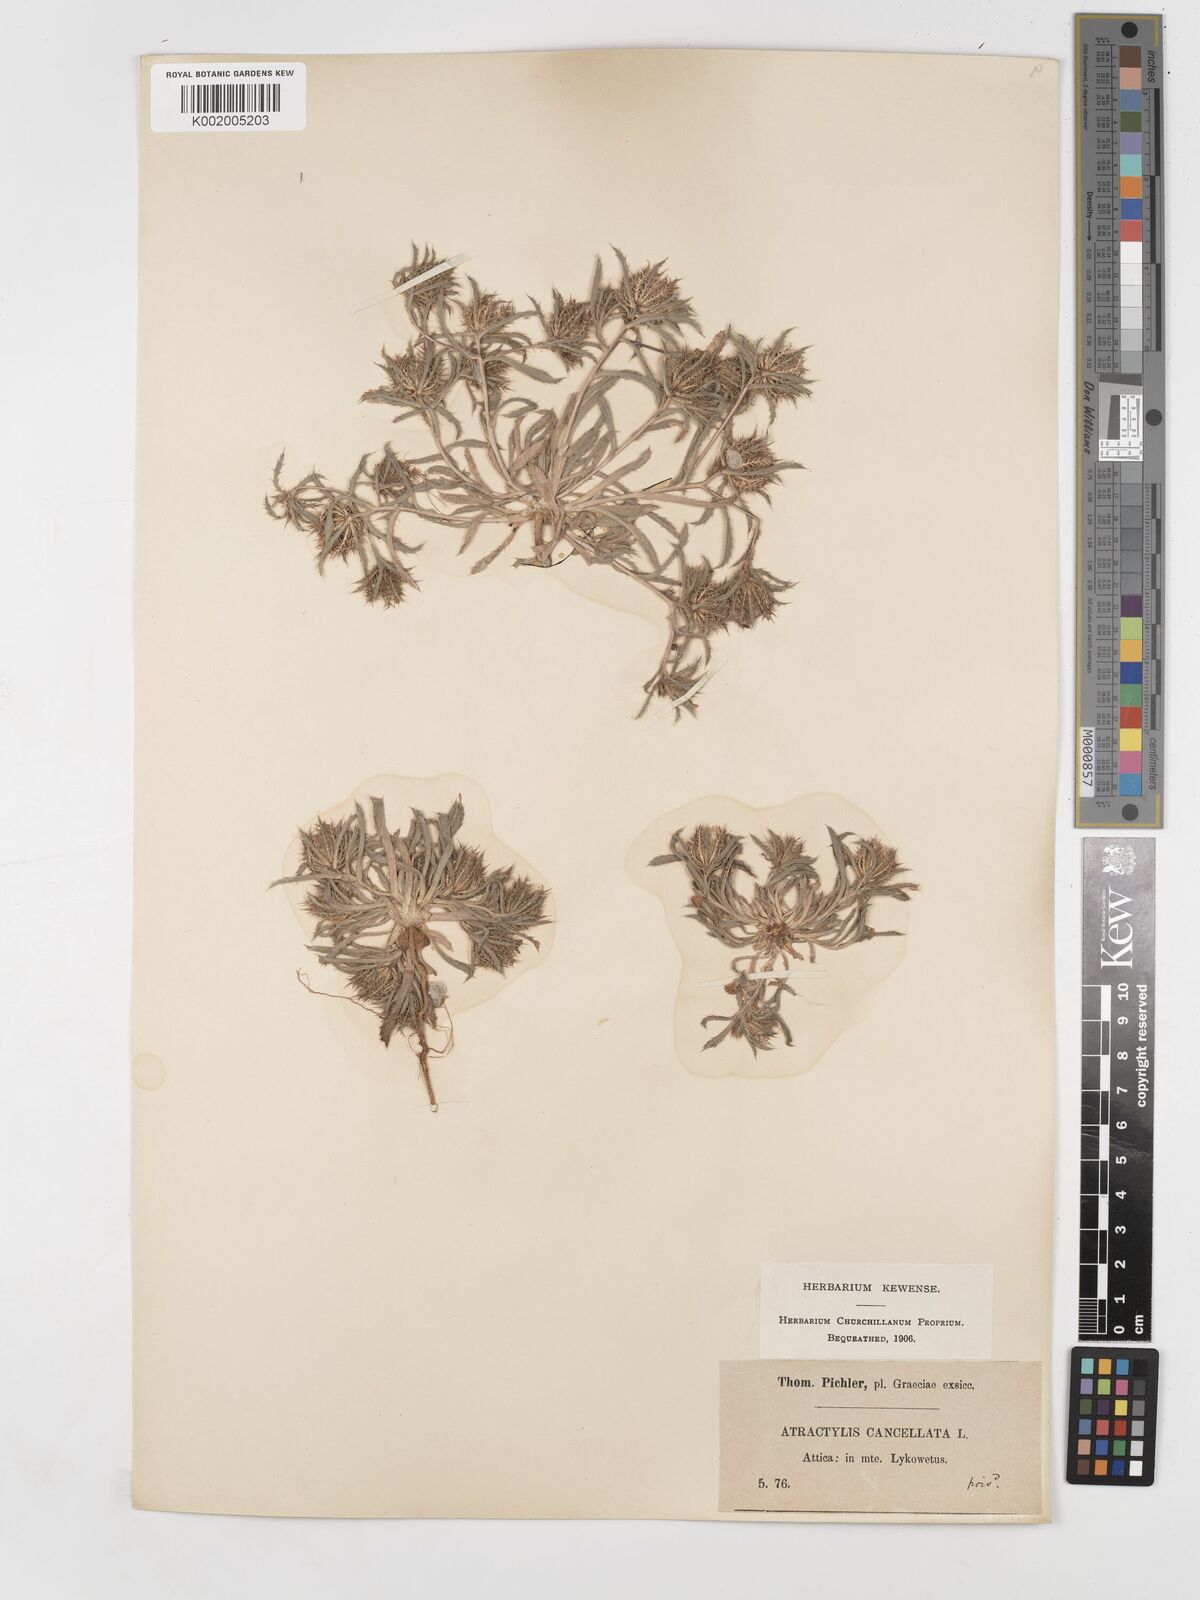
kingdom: Plantae
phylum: Tracheophyta
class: Magnoliopsida
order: Asterales
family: Asteraceae
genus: Atractylis
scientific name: Atractylis cancellata
